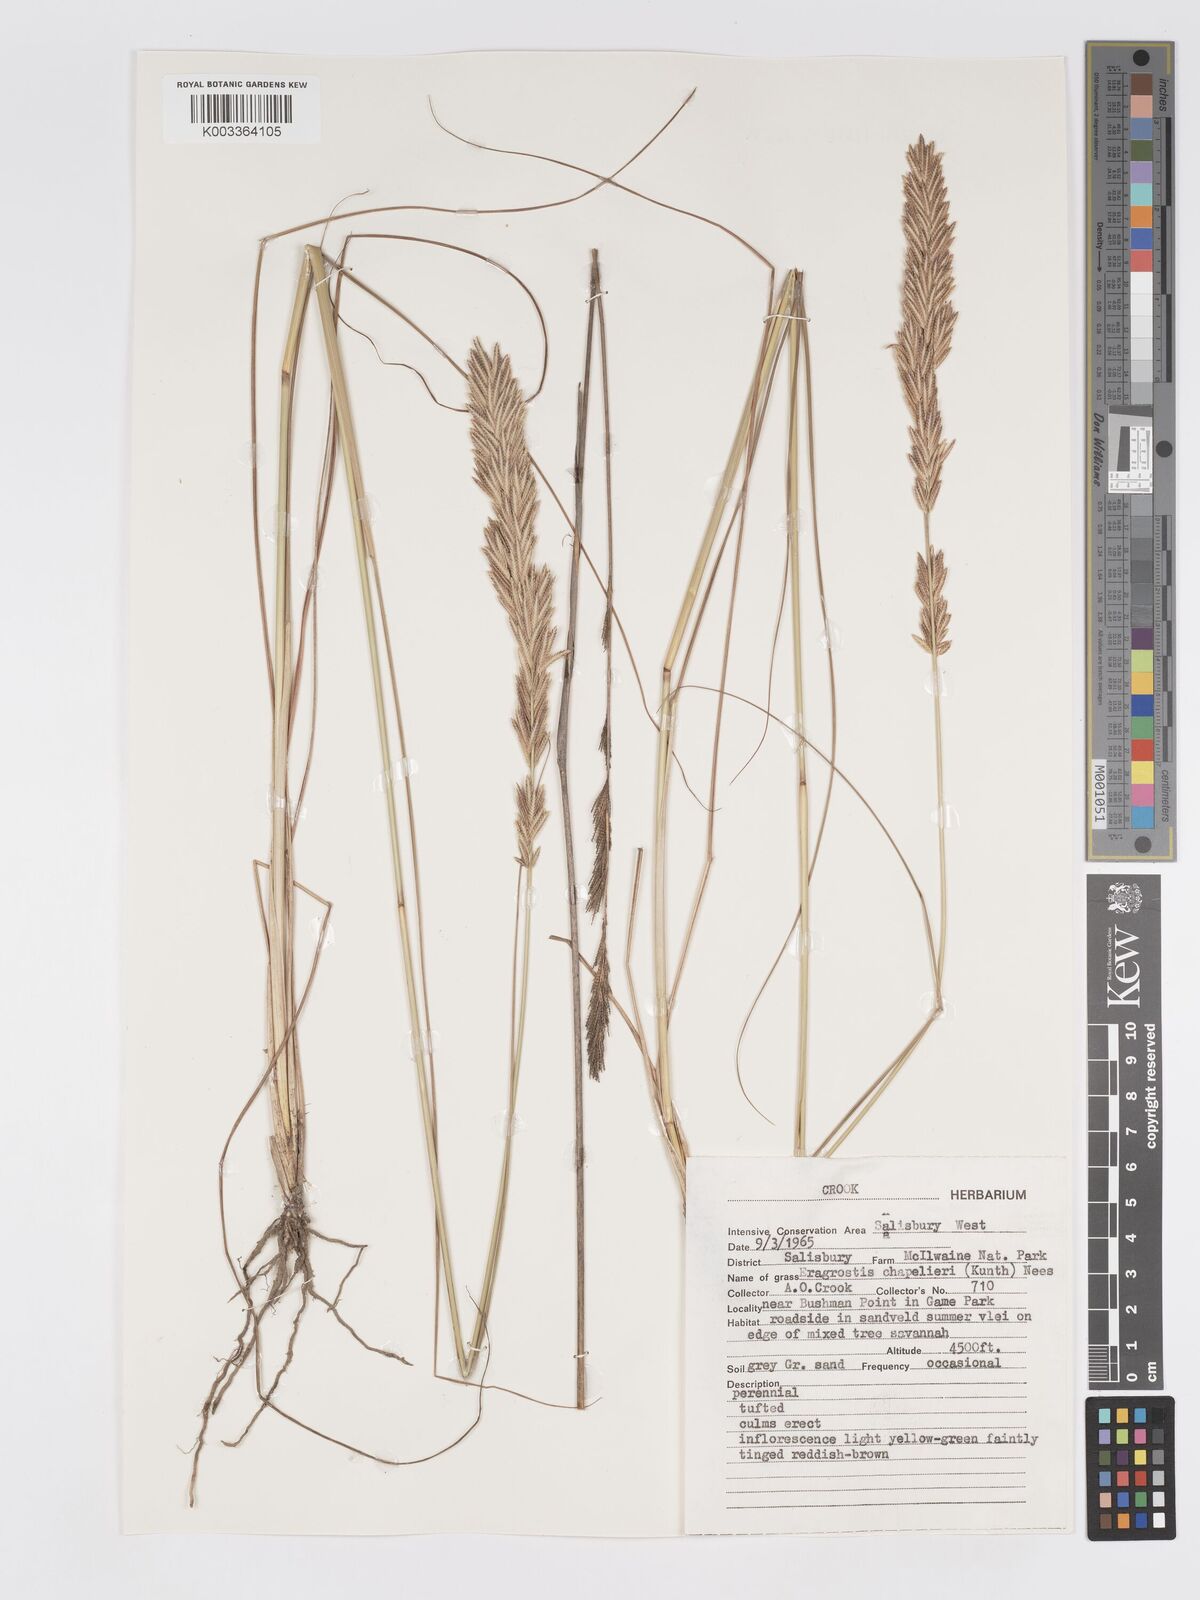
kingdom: Plantae
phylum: Tracheophyta
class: Liliopsida
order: Poales
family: Poaceae
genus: Eragrostis
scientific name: Eragrostis chapelieri
